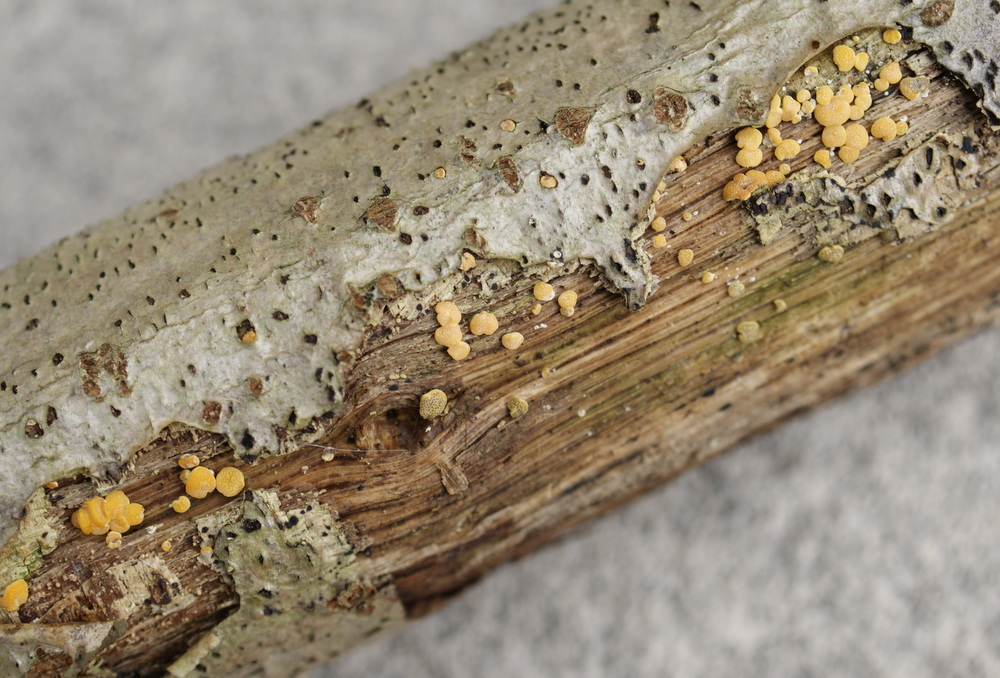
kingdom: Fungi
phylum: Ascomycota
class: Sordariomycetes
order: Hypocreales
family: Hypocreaceae
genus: Trichoderma
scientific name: Trichoderma aureoviride
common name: æggegul kødkerne
